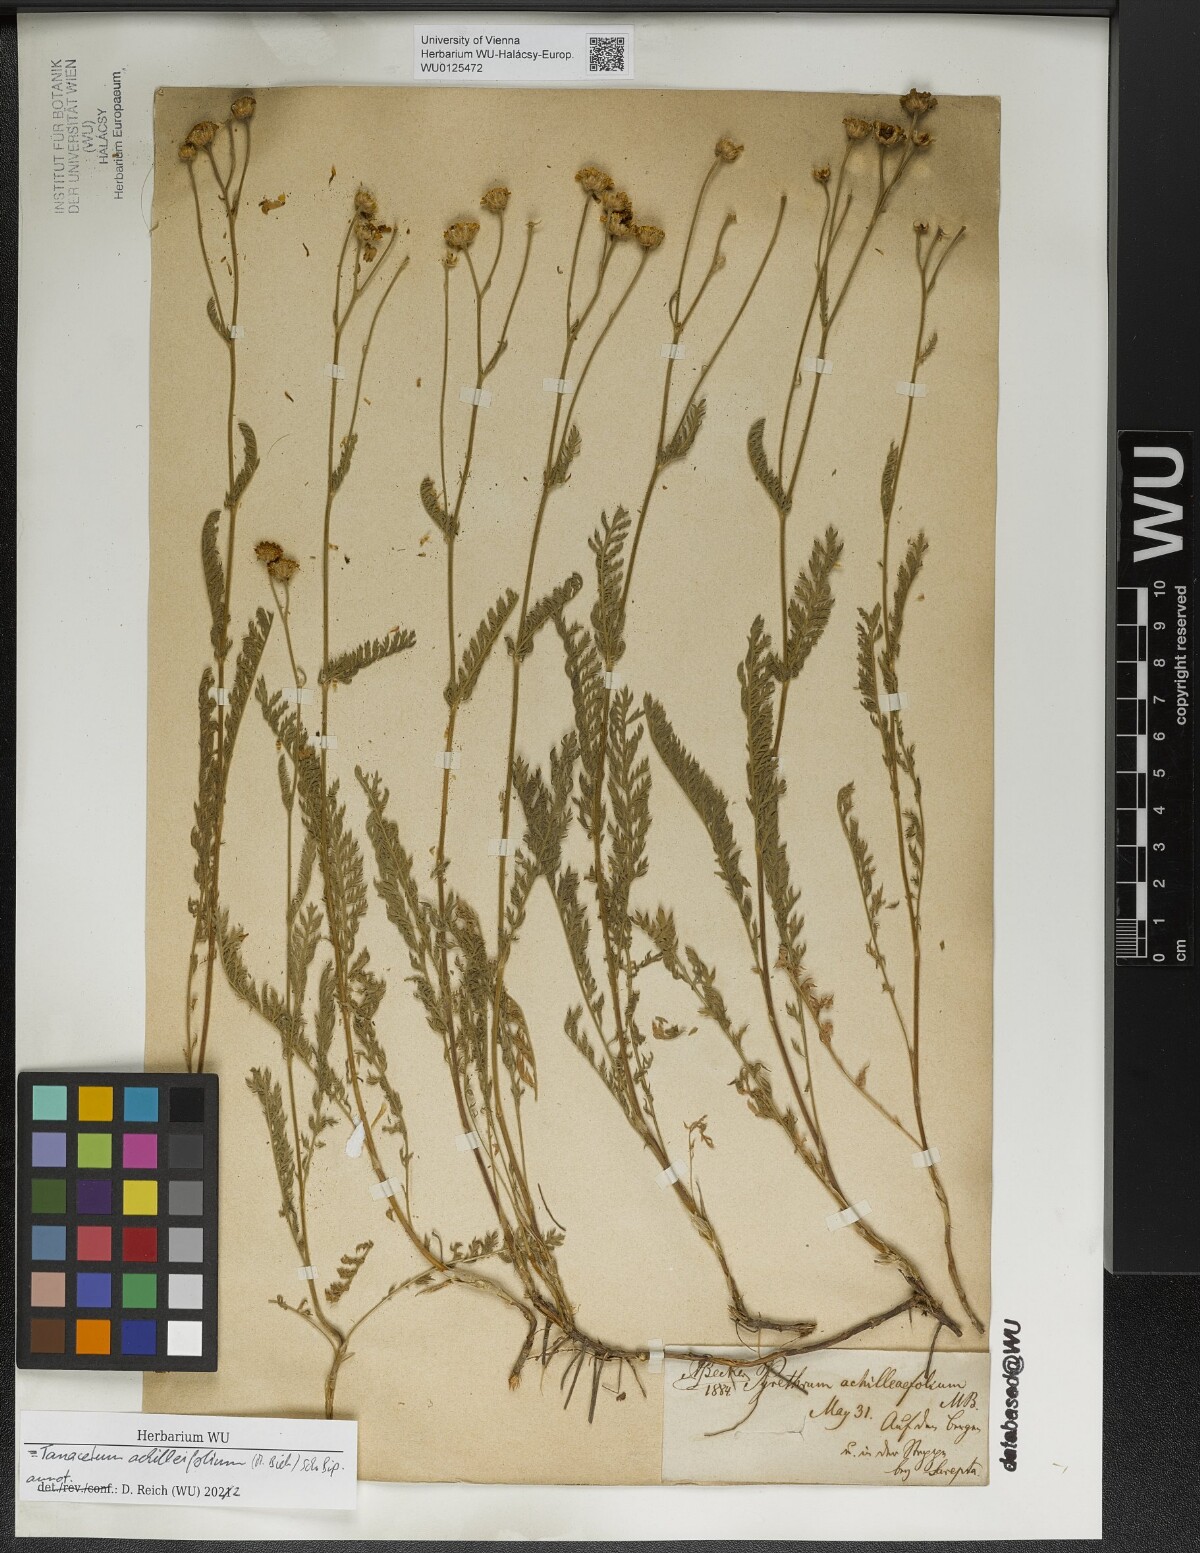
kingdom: Plantae
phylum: Tracheophyta
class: Magnoliopsida
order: Asterales
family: Asteraceae
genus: Tanacetum
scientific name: Tanacetum achilleifolium
